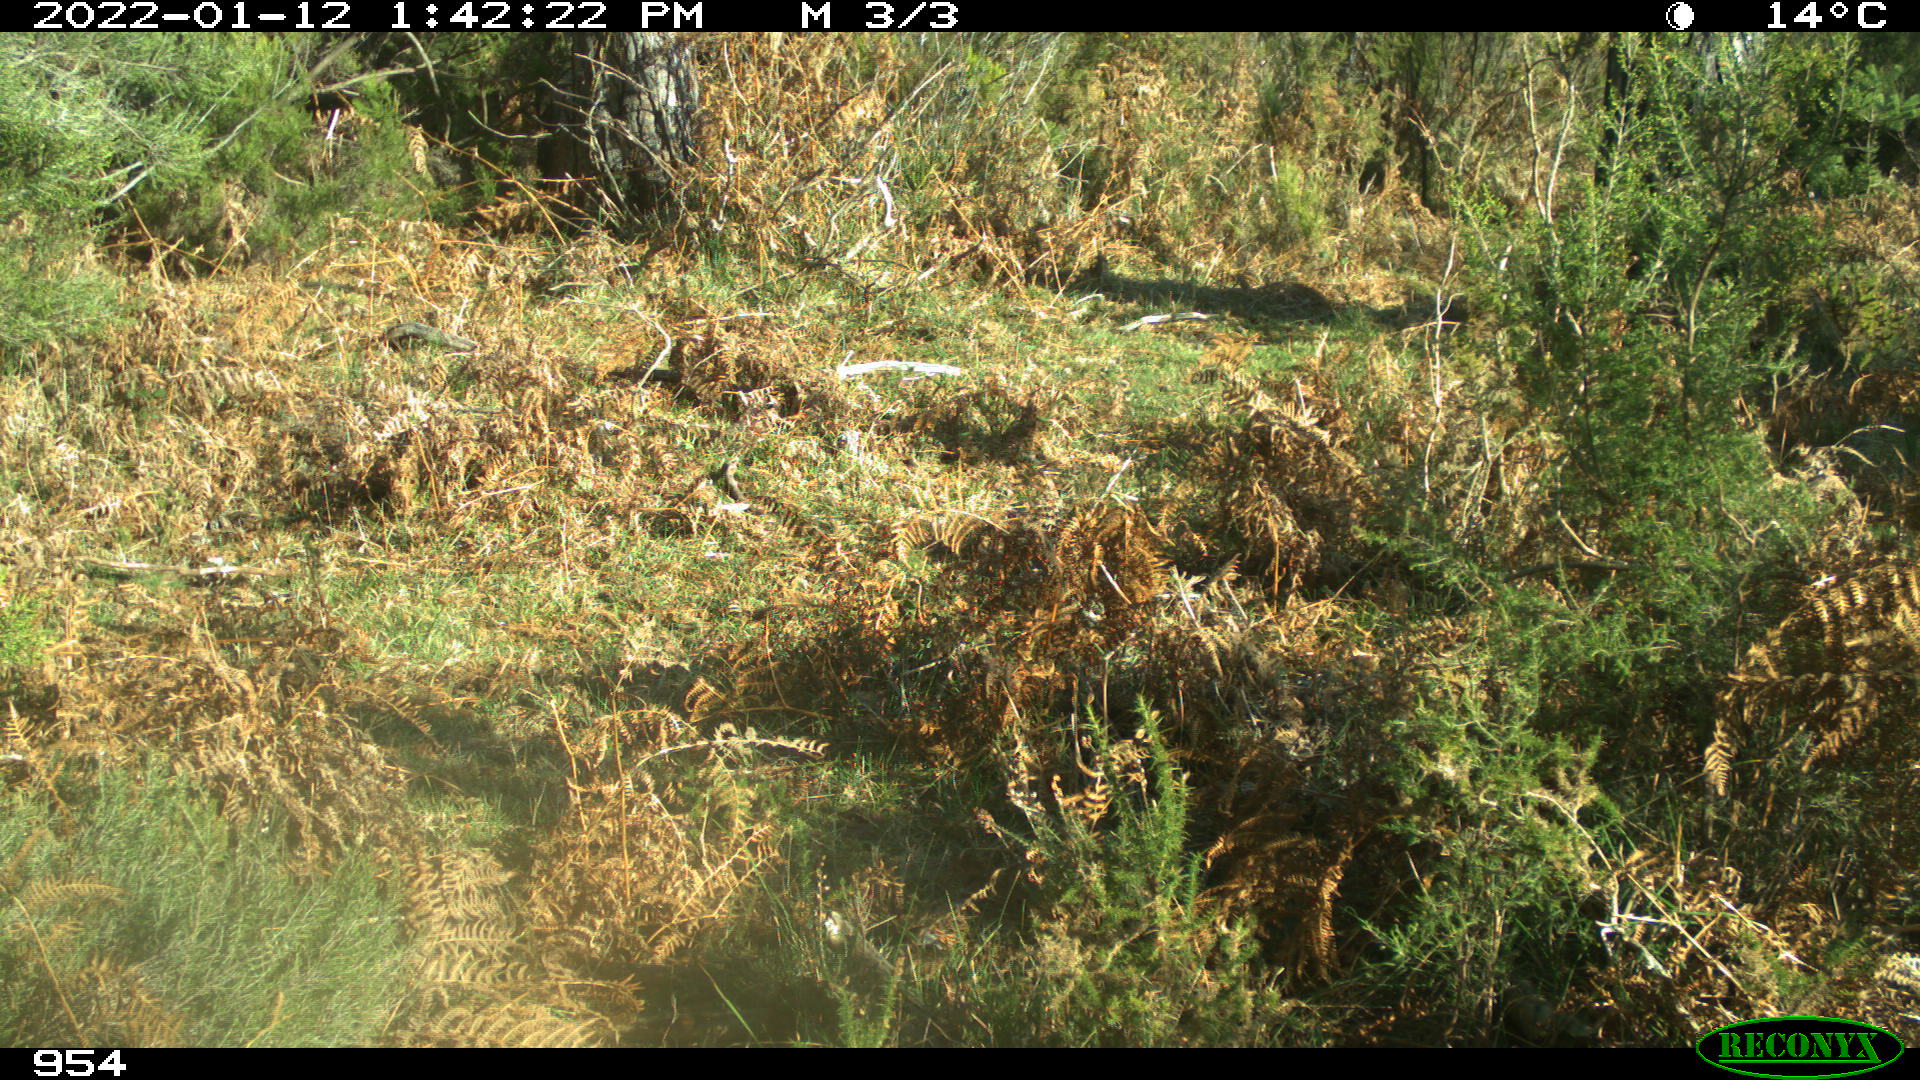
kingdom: Animalia
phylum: Chordata
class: Mammalia
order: Carnivora
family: Canidae
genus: Canis
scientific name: Canis lupus
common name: Gray wolf
